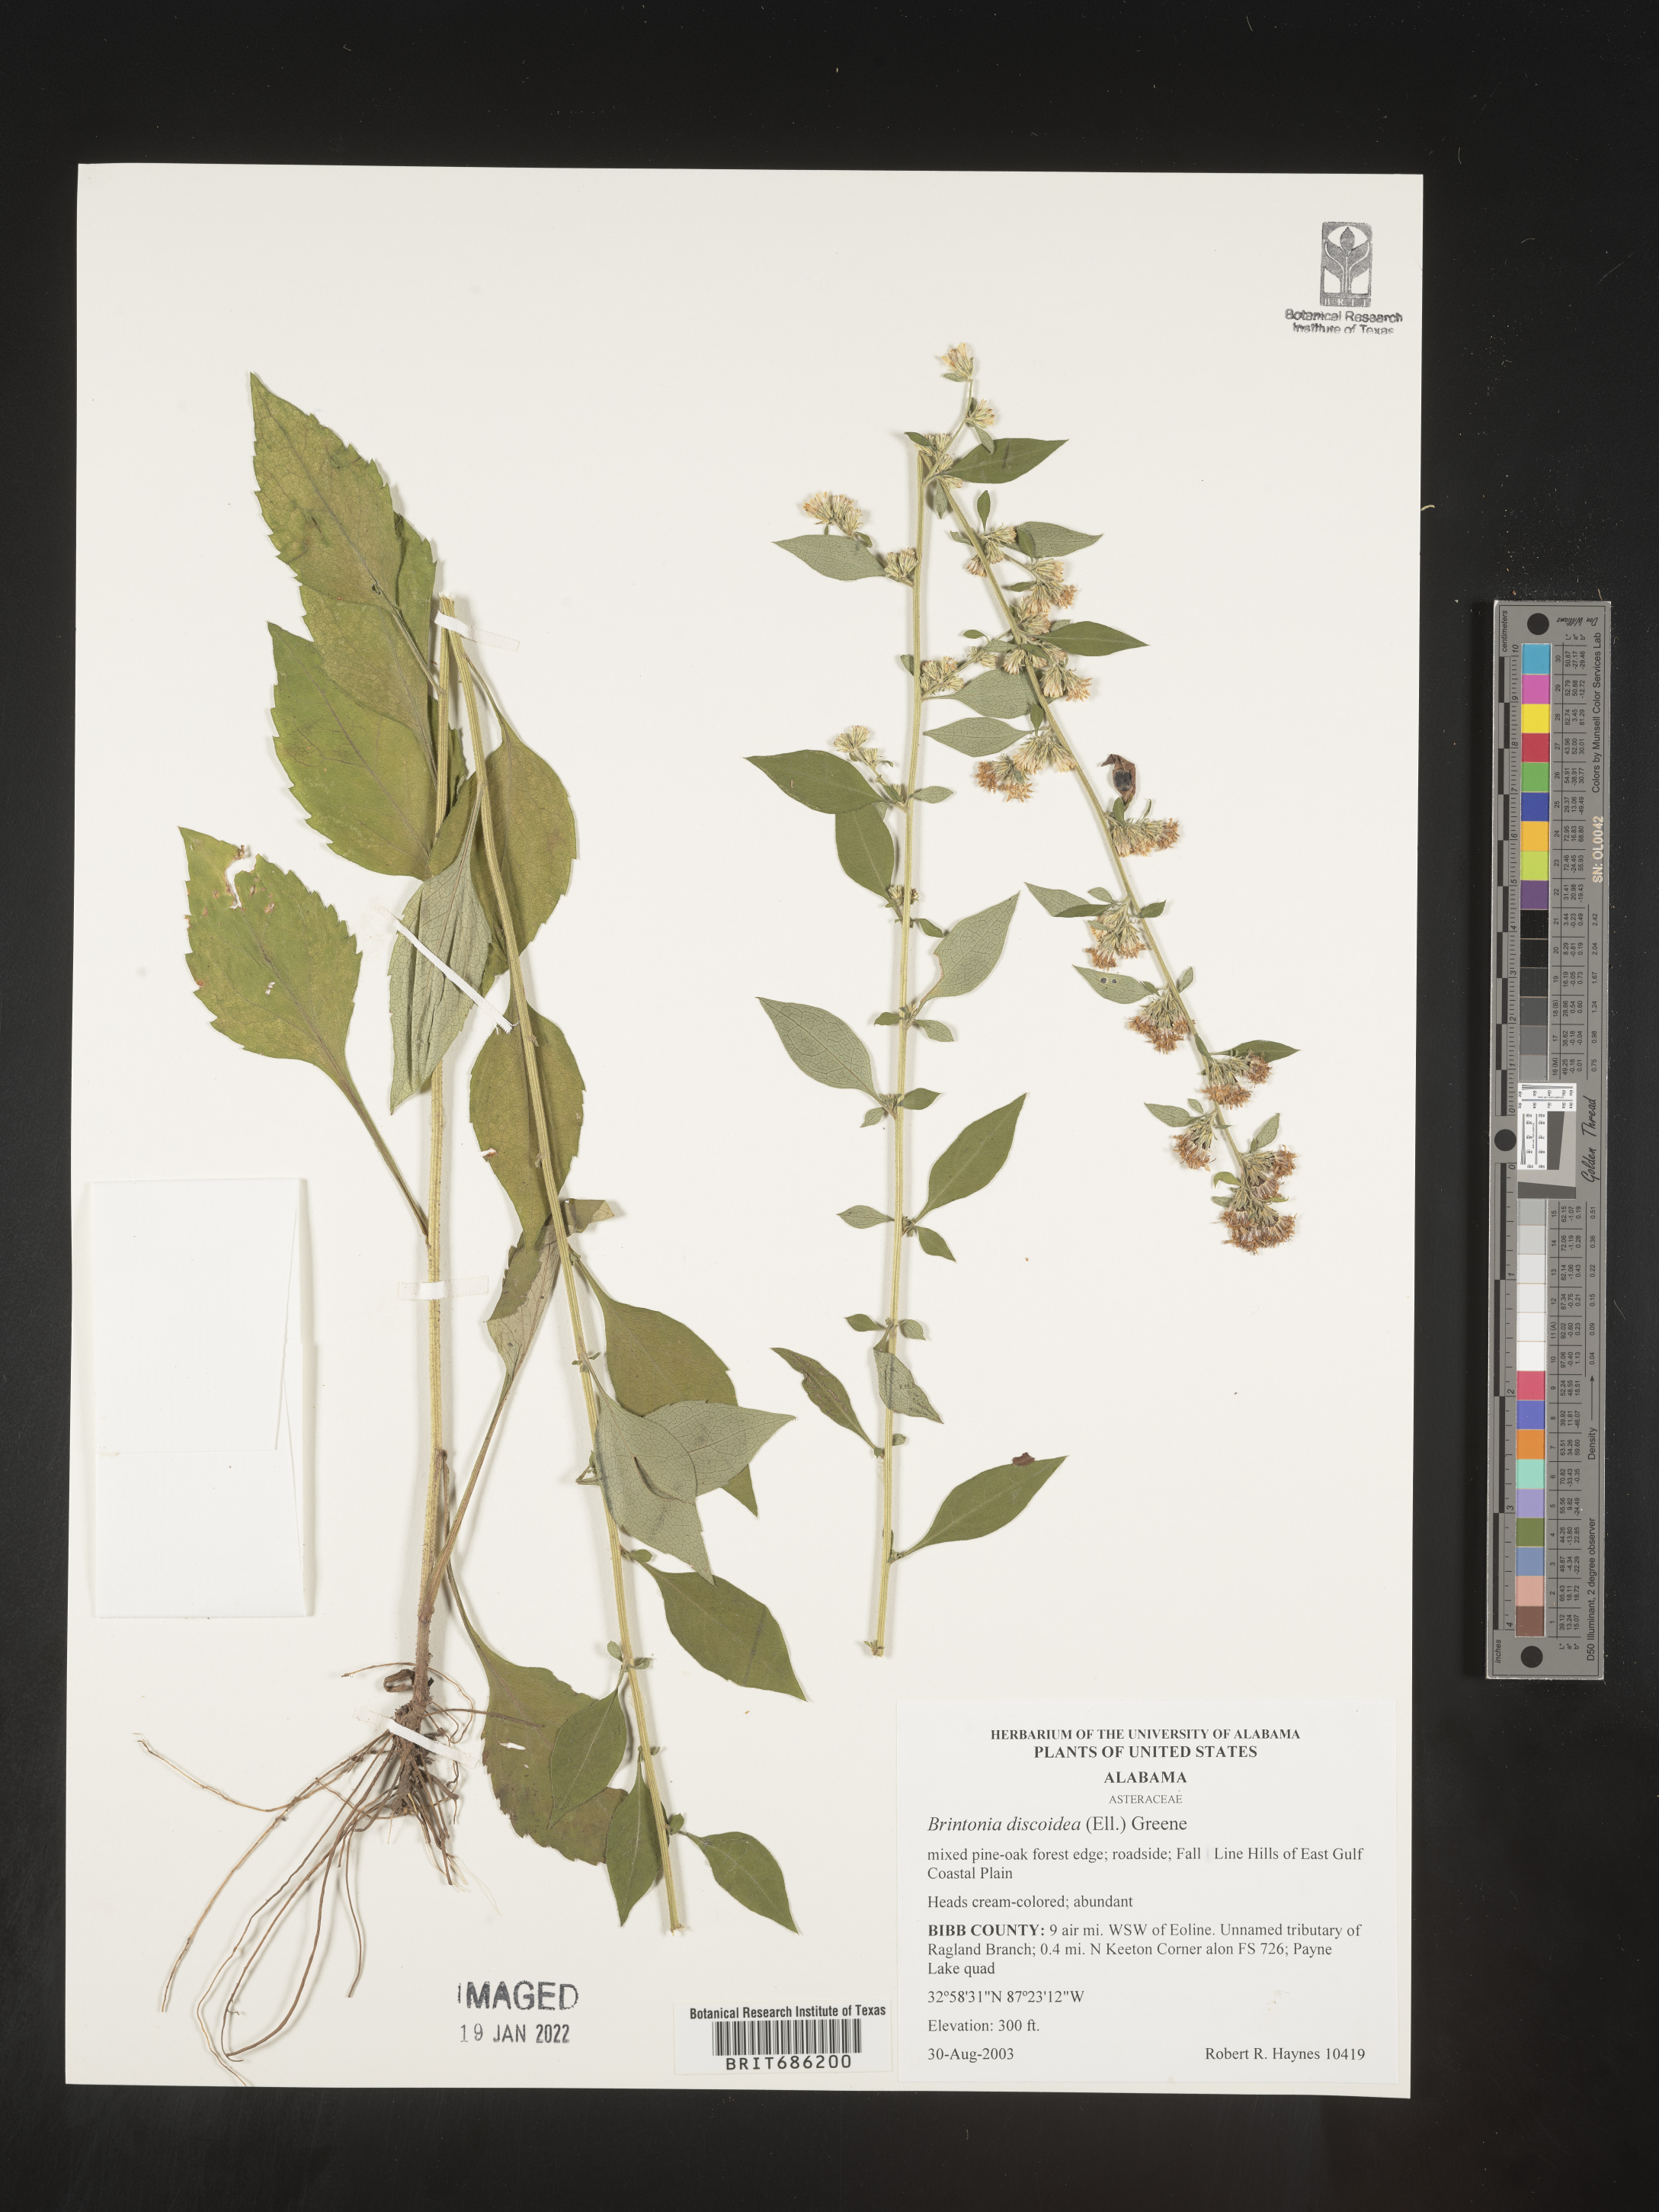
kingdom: Plantae
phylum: Tracheophyta
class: Magnoliopsida
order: Asterales
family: Asteraceae
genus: Solidago
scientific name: Solidago discoidea
